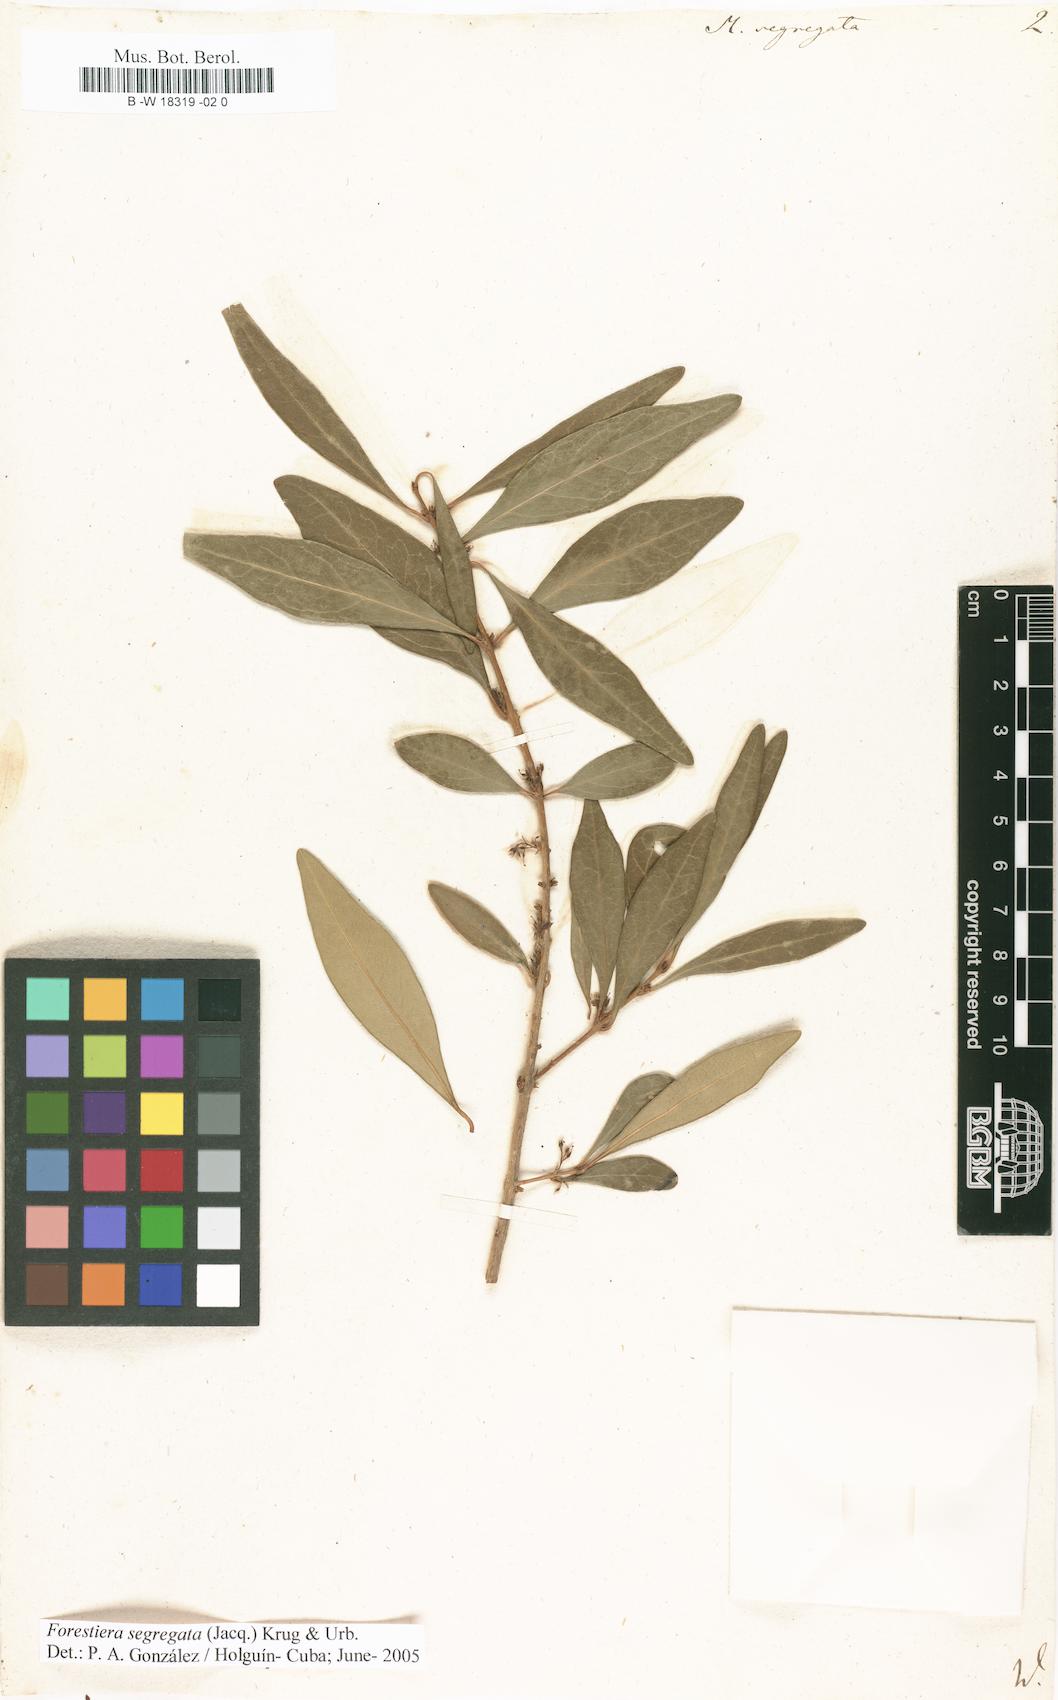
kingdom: Plantae
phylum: Tracheophyta
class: Magnoliopsida
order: Lamiales
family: Oleaceae
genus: Forestiera
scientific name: Forestiera segregata
